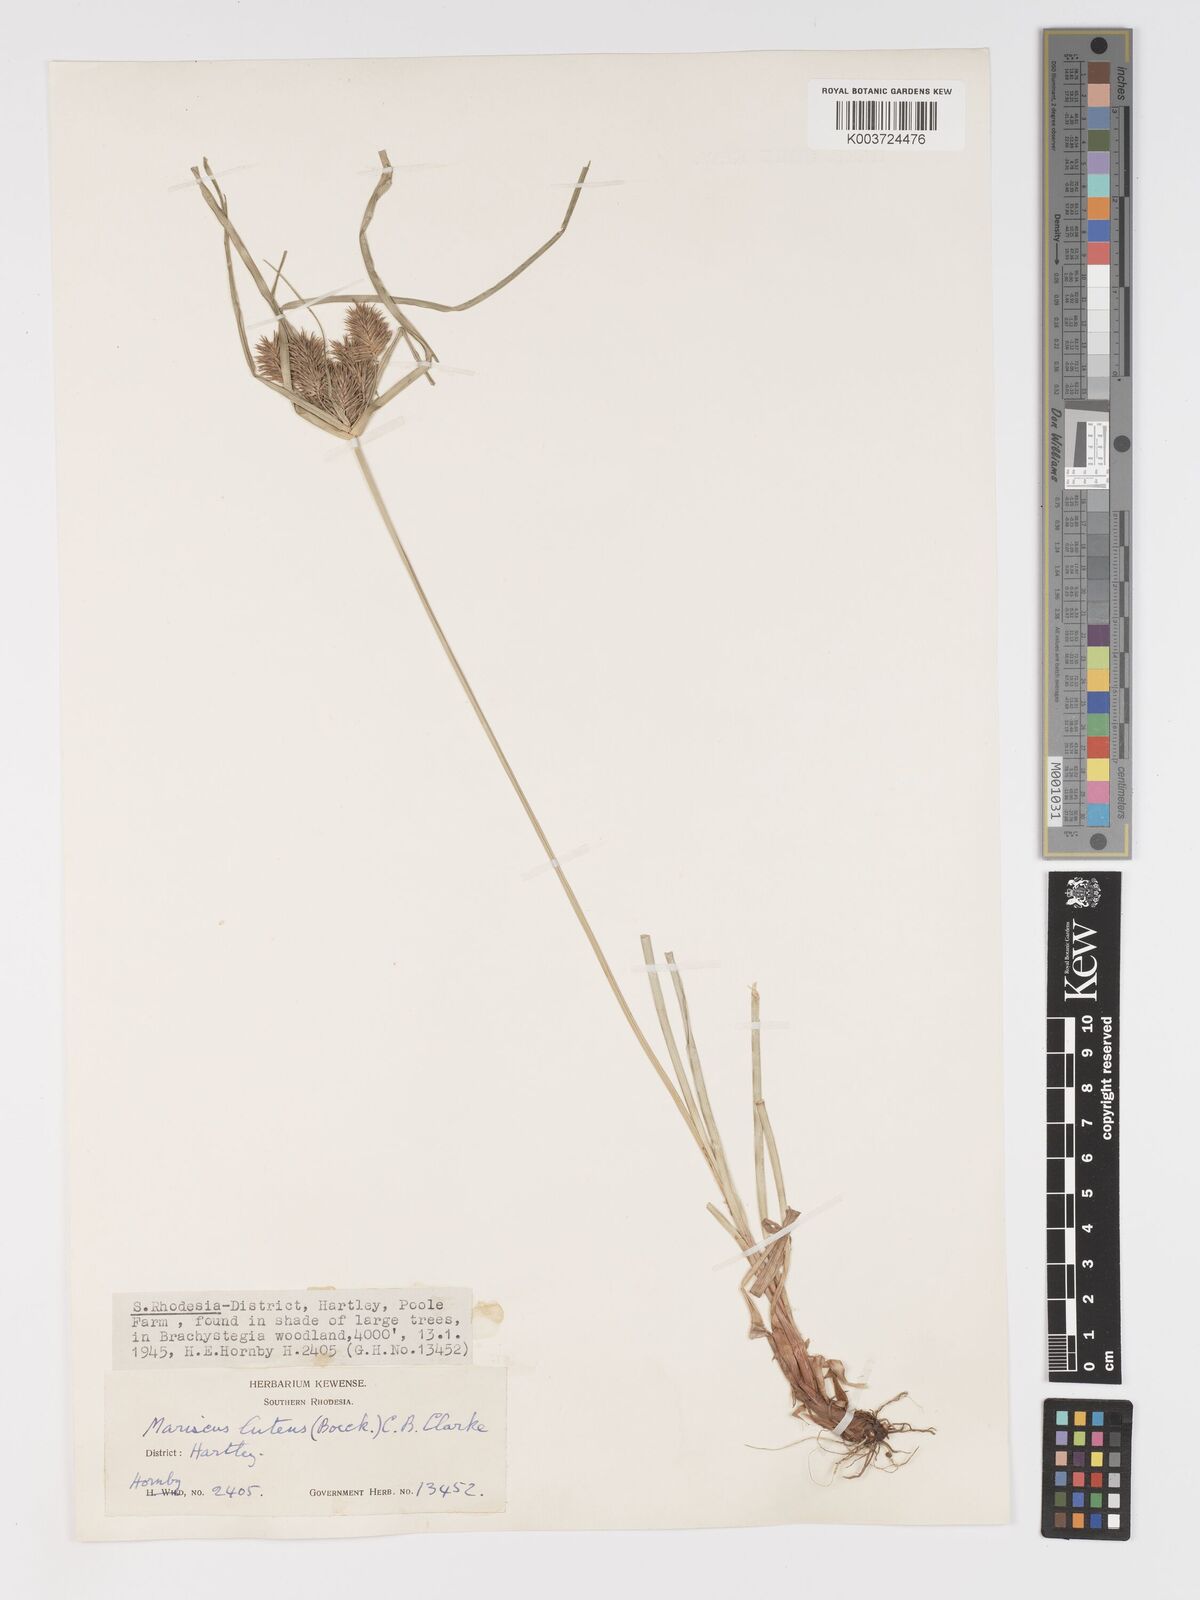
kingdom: Plantae
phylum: Tracheophyta
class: Liliopsida
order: Poales
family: Cyperaceae
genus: Cyperus
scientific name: Cyperus luteus
